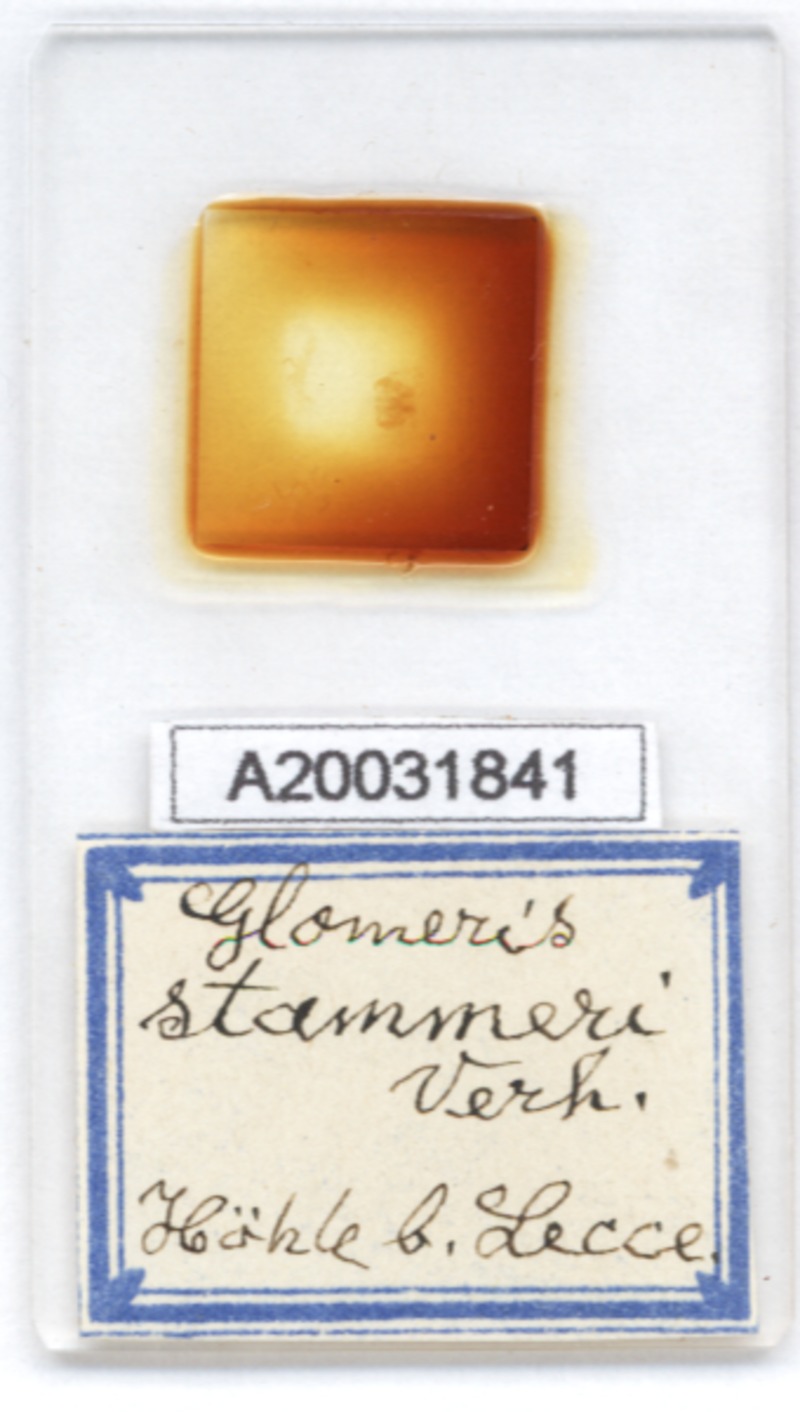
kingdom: Animalia
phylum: Arthropoda
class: Diplopoda
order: Glomerida
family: Glomeridae
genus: Glomeris
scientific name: Glomeris stammeri
